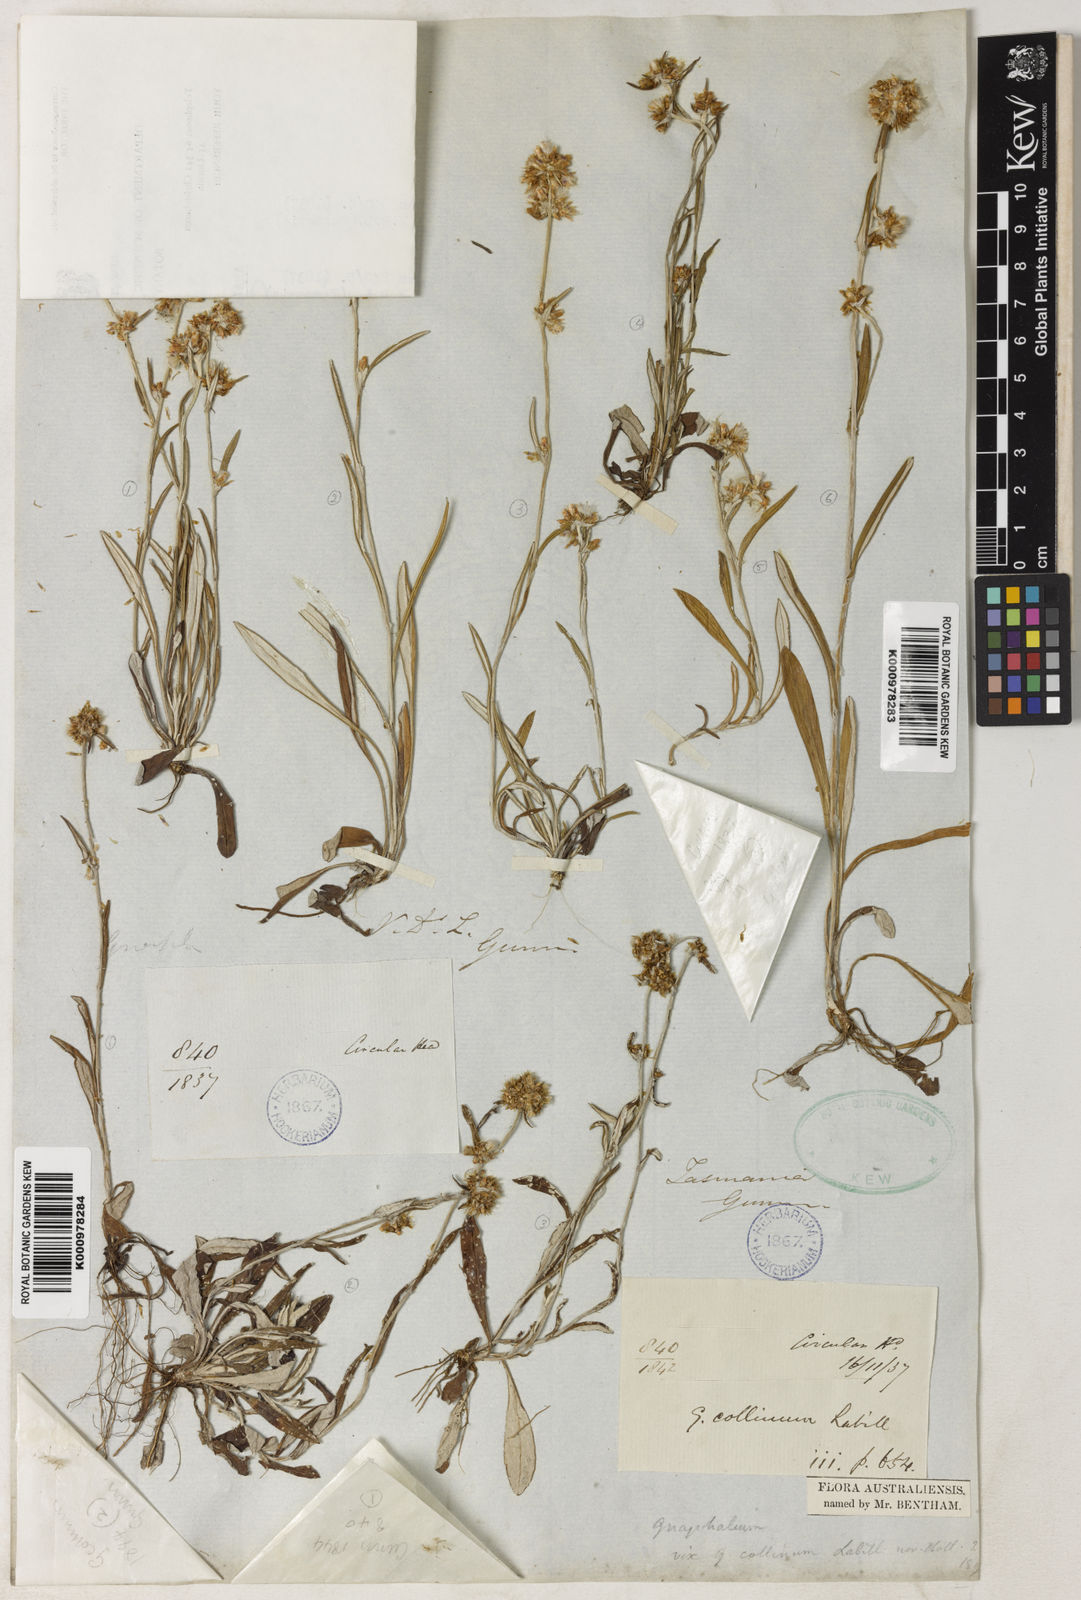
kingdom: Plantae
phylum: Tracheophyta
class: Magnoliopsida
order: Asterales
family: Asteraceae
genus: Euchiton
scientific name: Euchiton gymnocephalus
